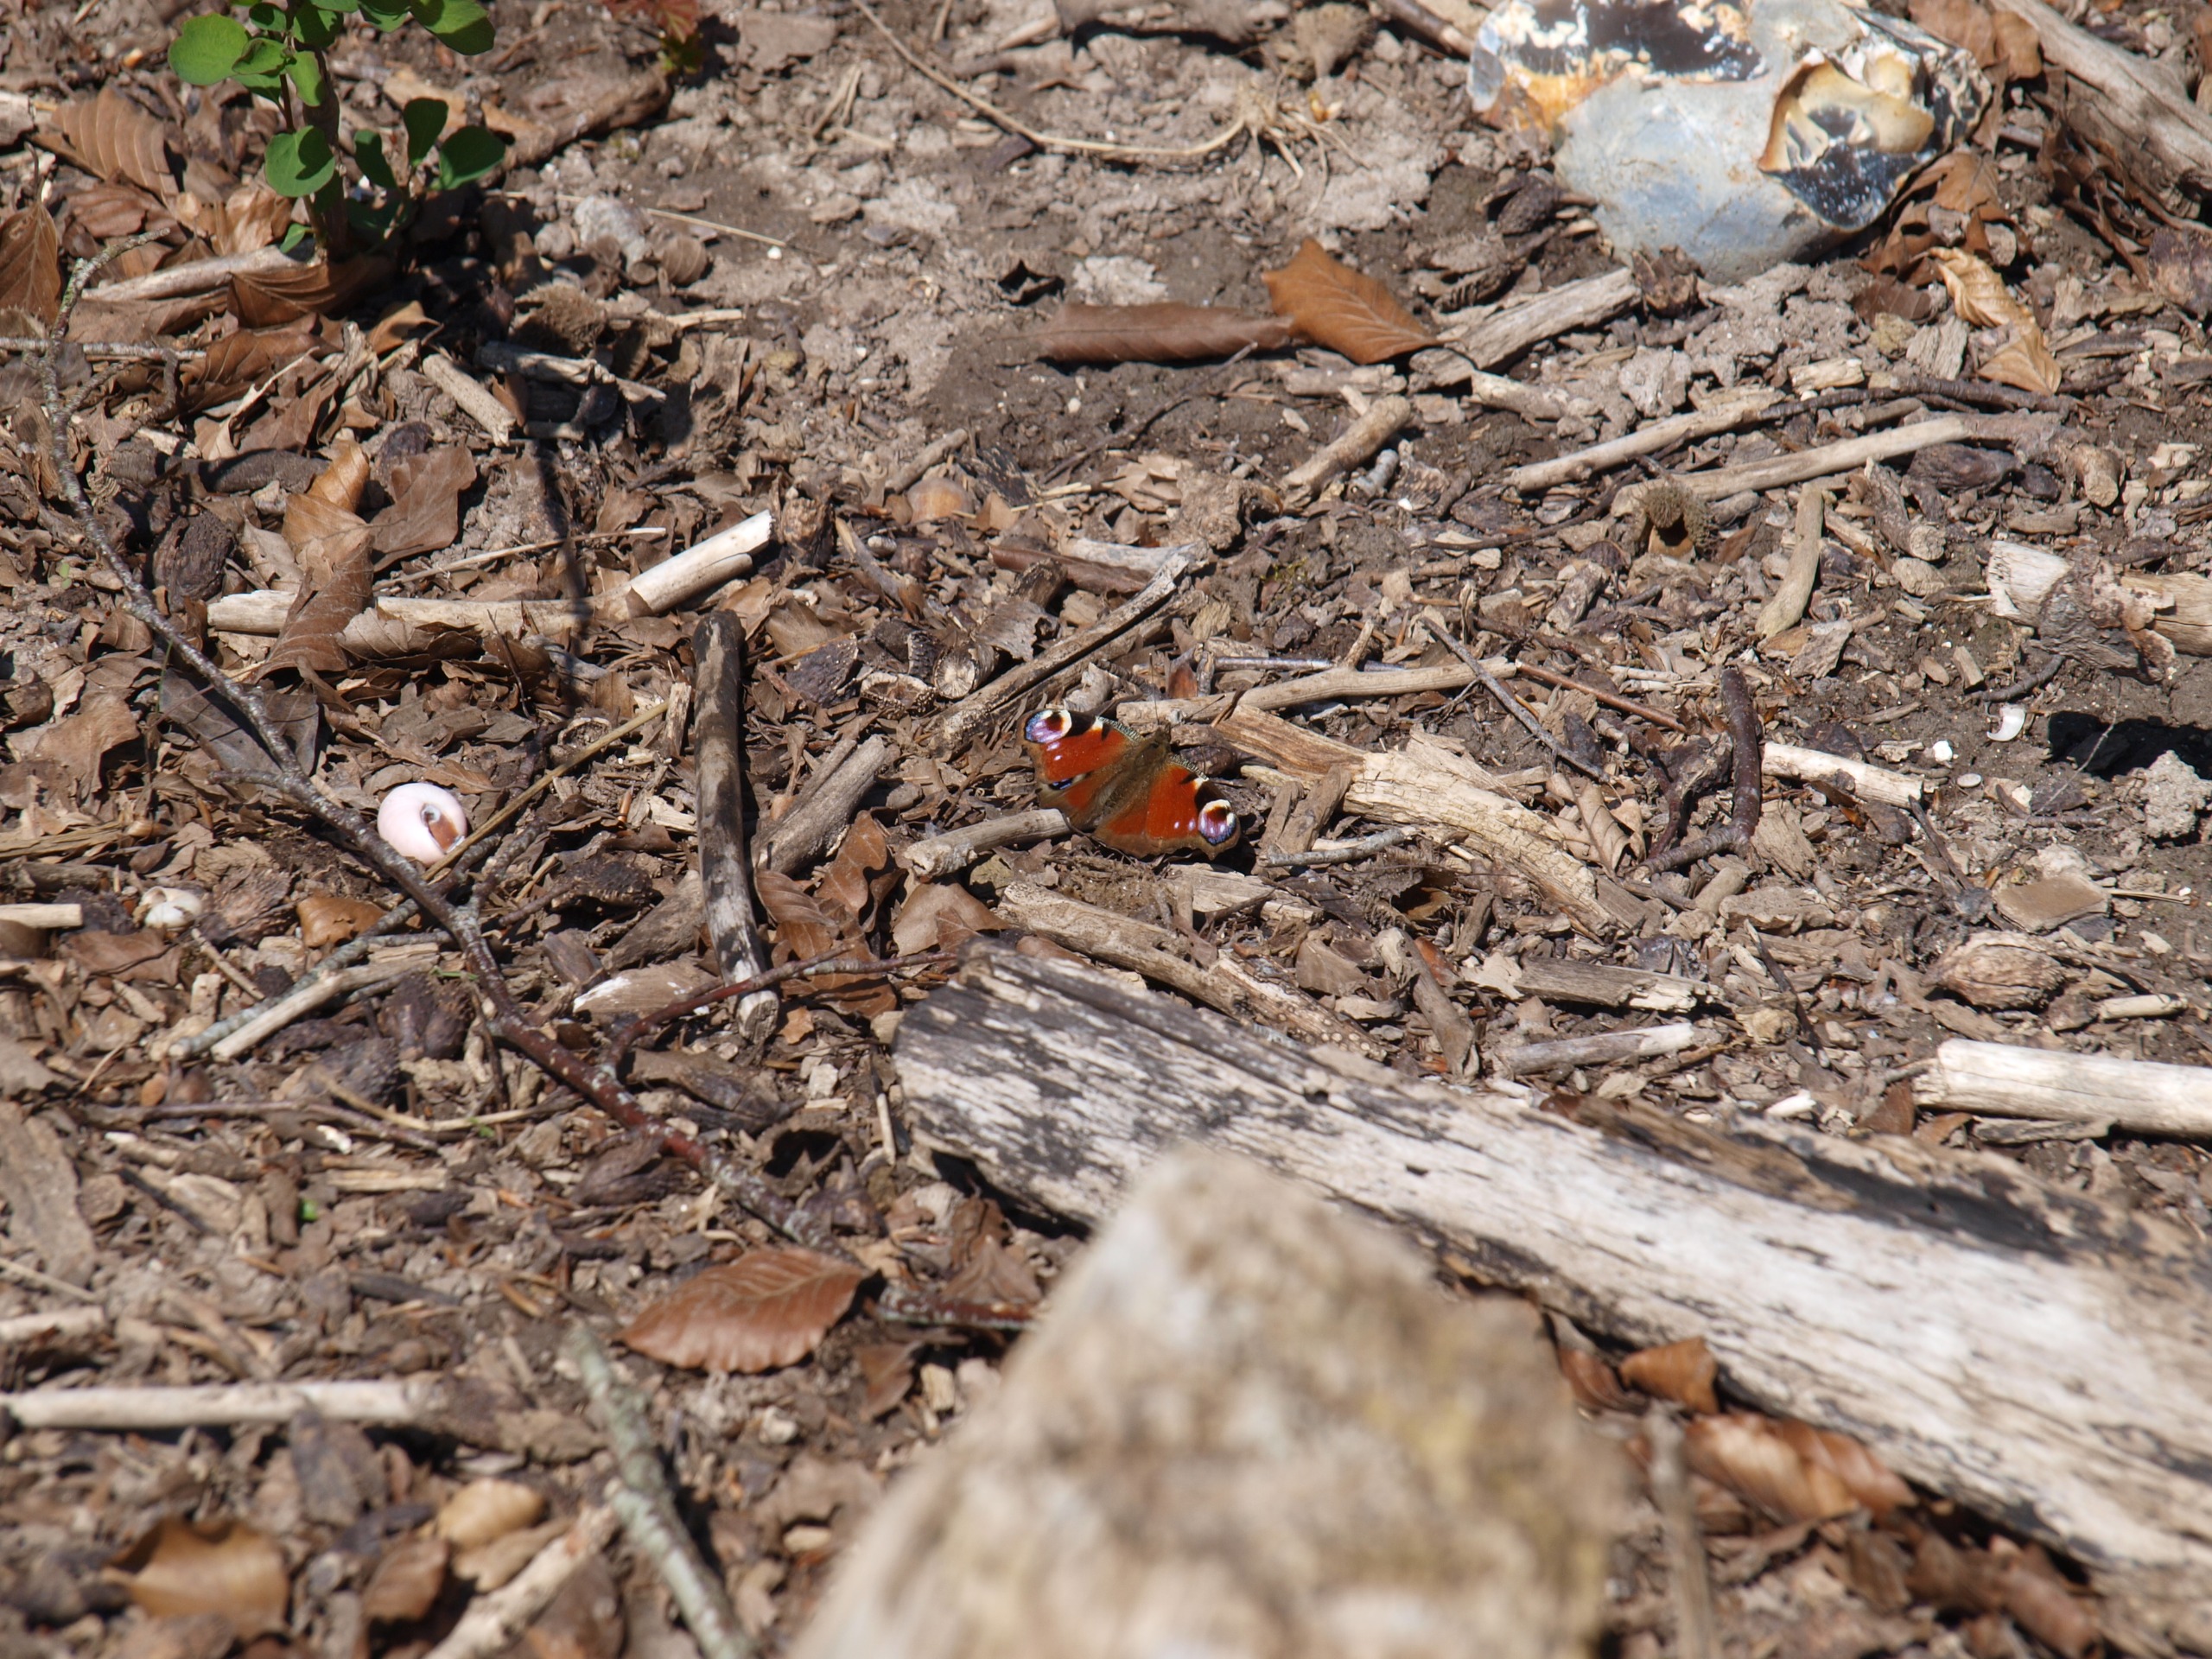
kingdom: Animalia
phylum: Arthropoda
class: Insecta
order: Lepidoptera
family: Nymphalidae
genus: Aglais
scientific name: Aglais io
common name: Dagpåfugleøje
